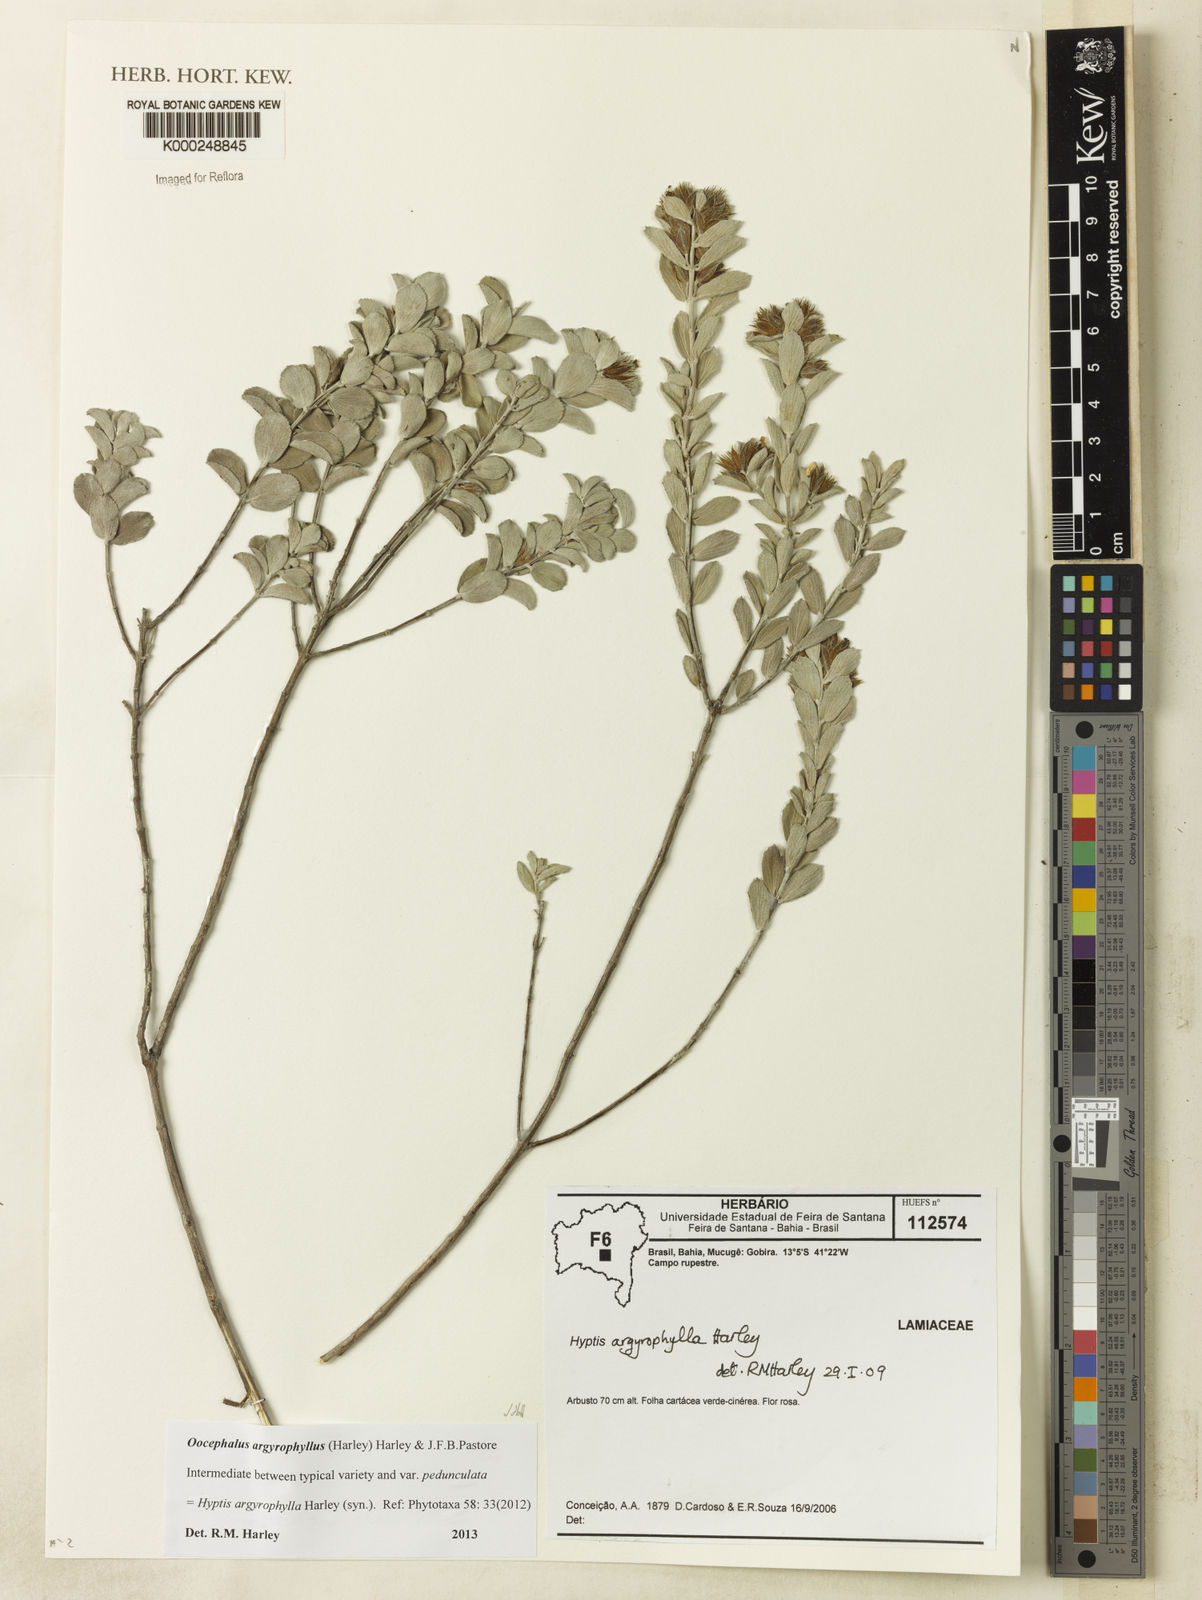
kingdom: Plantae
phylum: Tracheophyta
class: Magnoliopsida
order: Lamiales
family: Lamiaceae
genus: Oocephalus
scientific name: Oocephalus argyrophyllus
